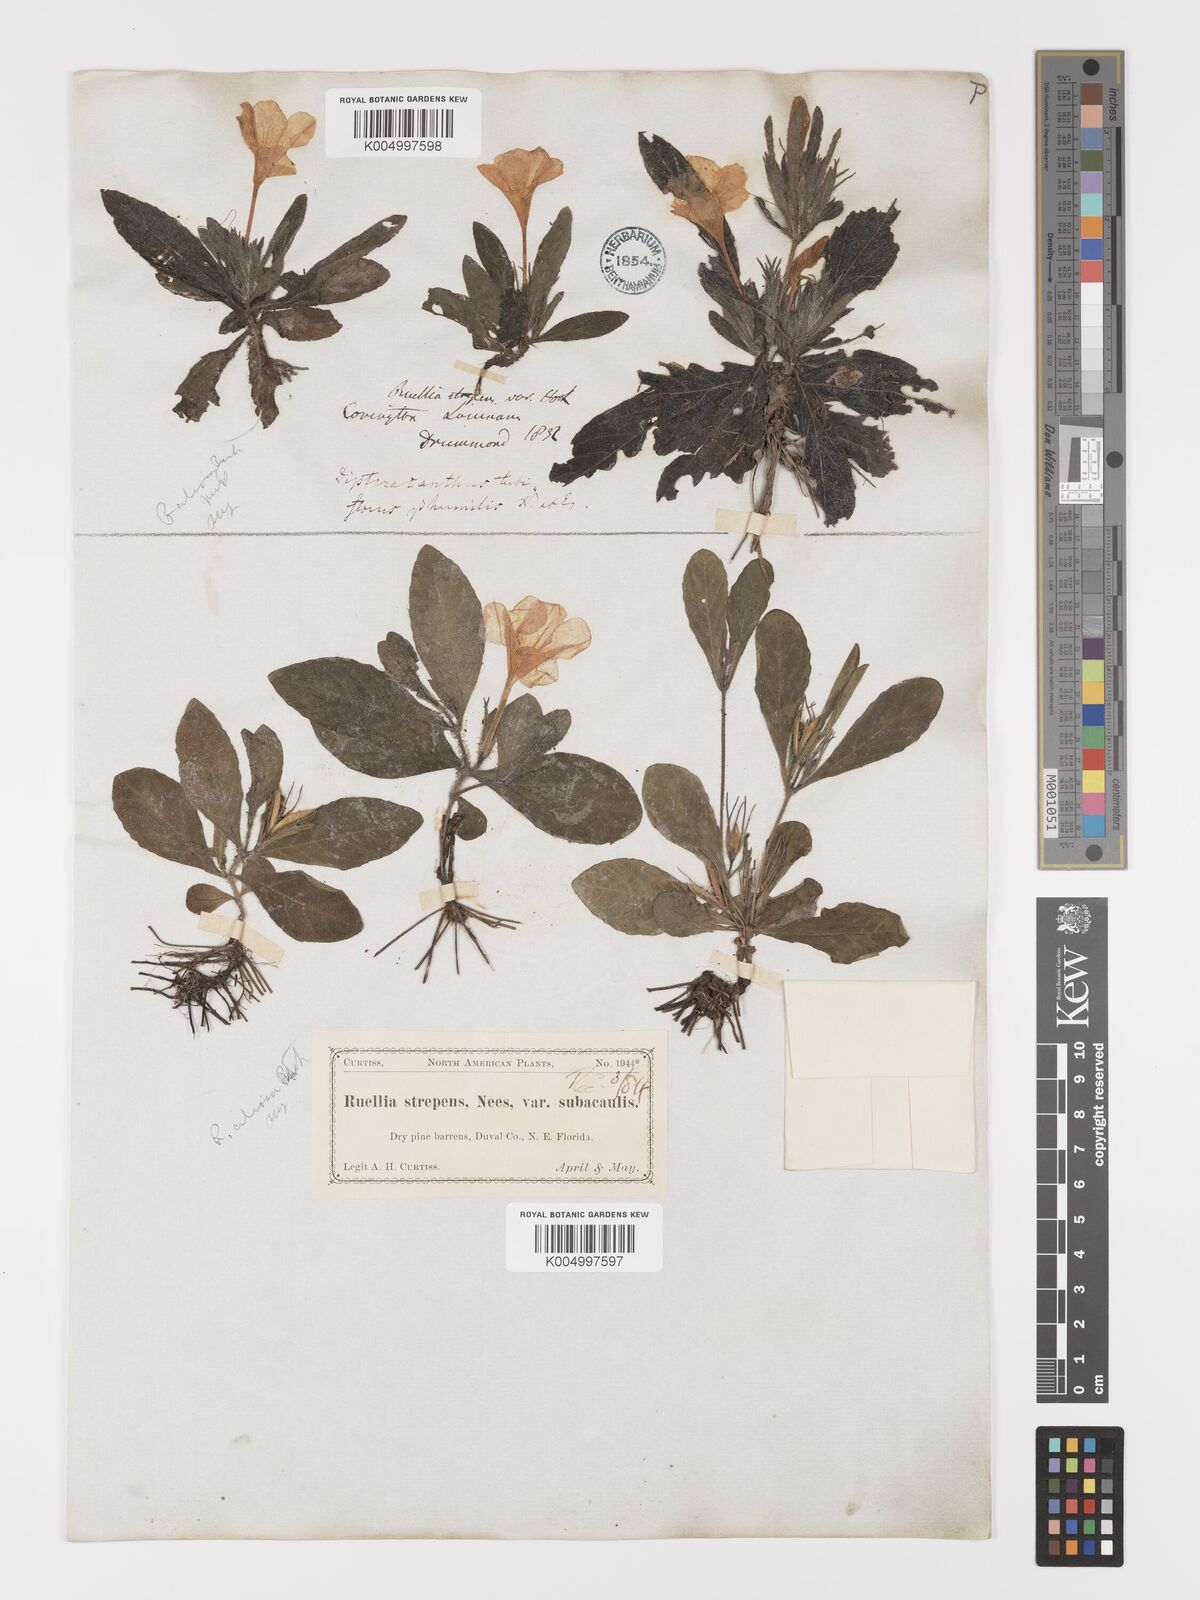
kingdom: Plantae
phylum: Tracheophyta
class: Magnoliopsida
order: Lamiales
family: Acanthaceae
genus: Ruellia
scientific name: Ruellia
